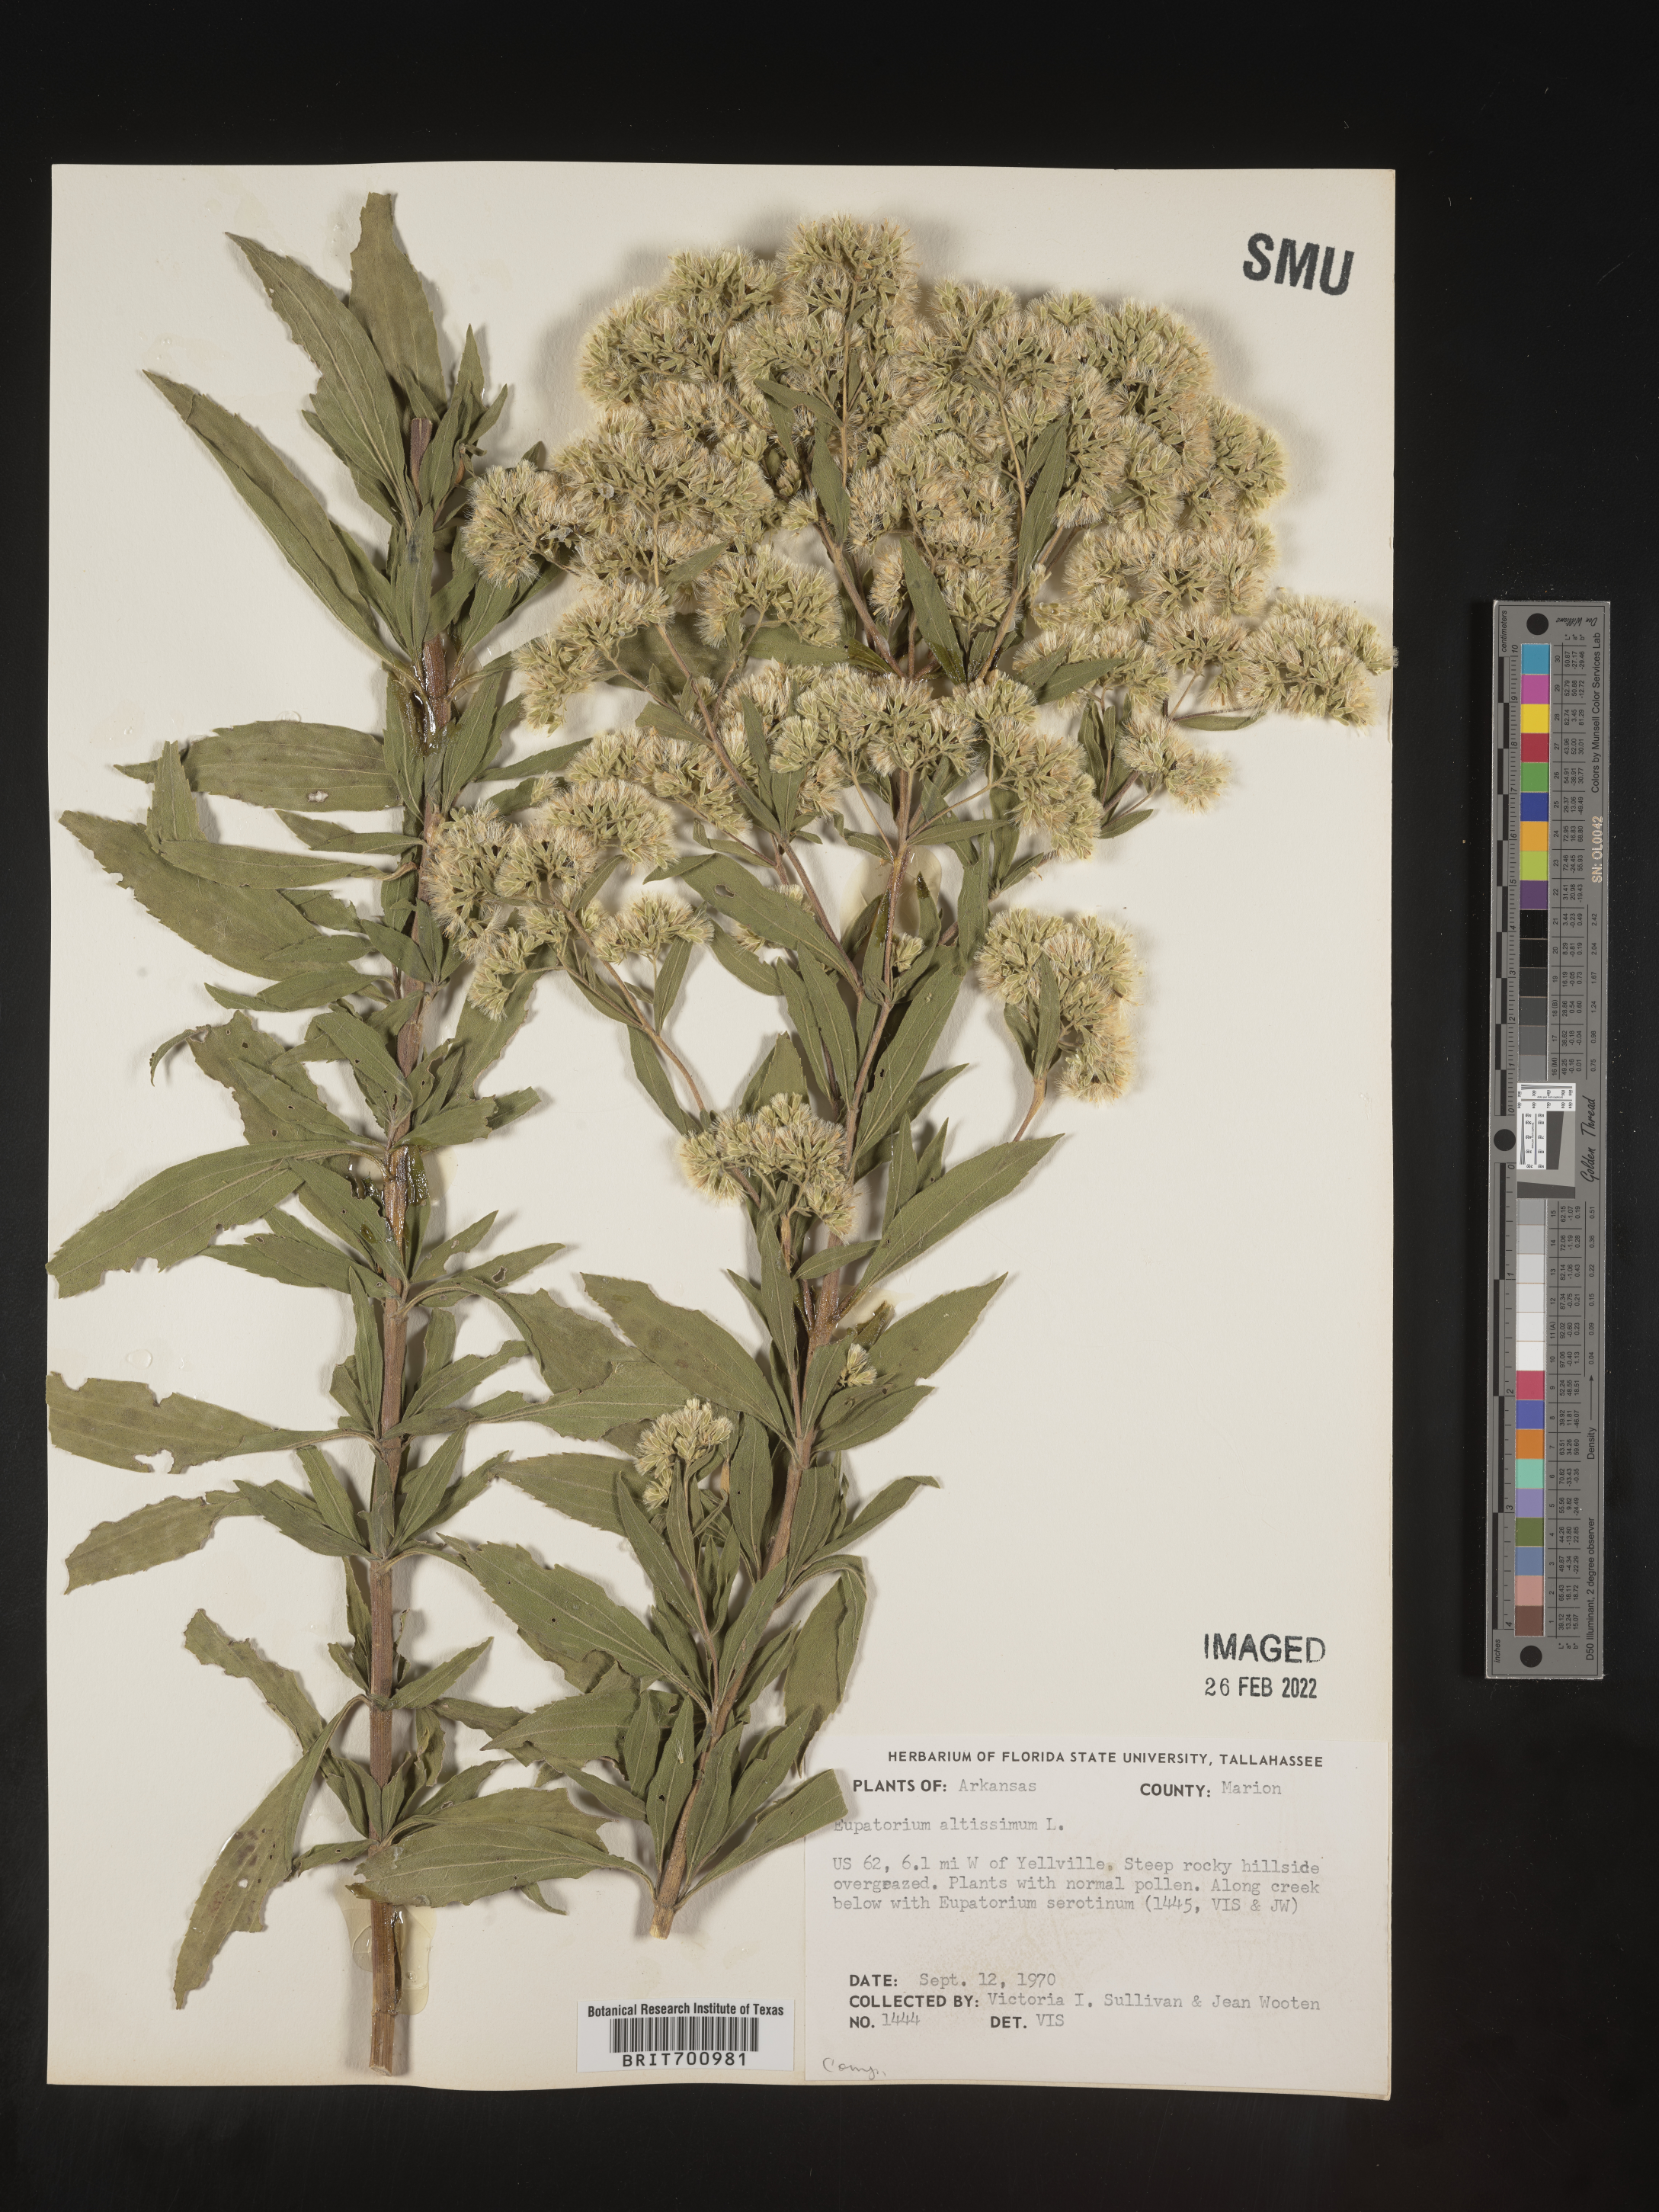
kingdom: Plantae
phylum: Tracheophyta
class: Magnoliopsida
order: Asterales
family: Asteraceae
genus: Eupatorium
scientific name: Eupatorium altissimum
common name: Tall thoroughwort
